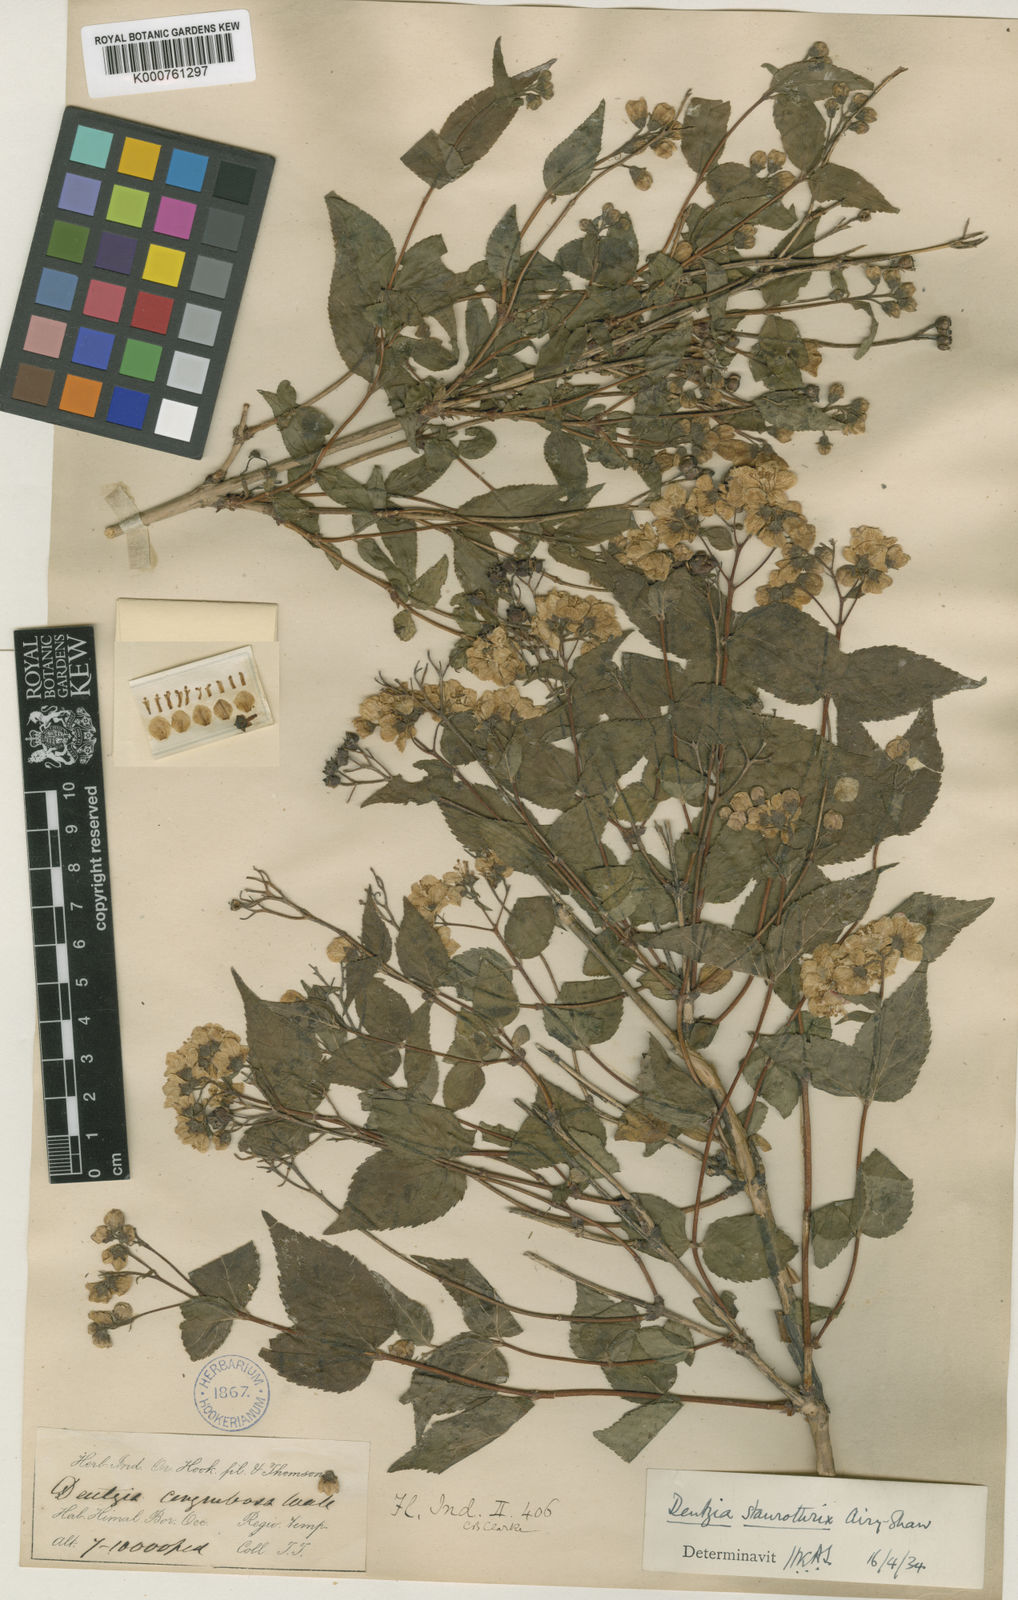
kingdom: Plantae
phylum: Tracheophyta
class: Magnoliopsida
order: Cornales
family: Hydrangeaceae
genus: Deutzia
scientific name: Deutzia hookeriana
